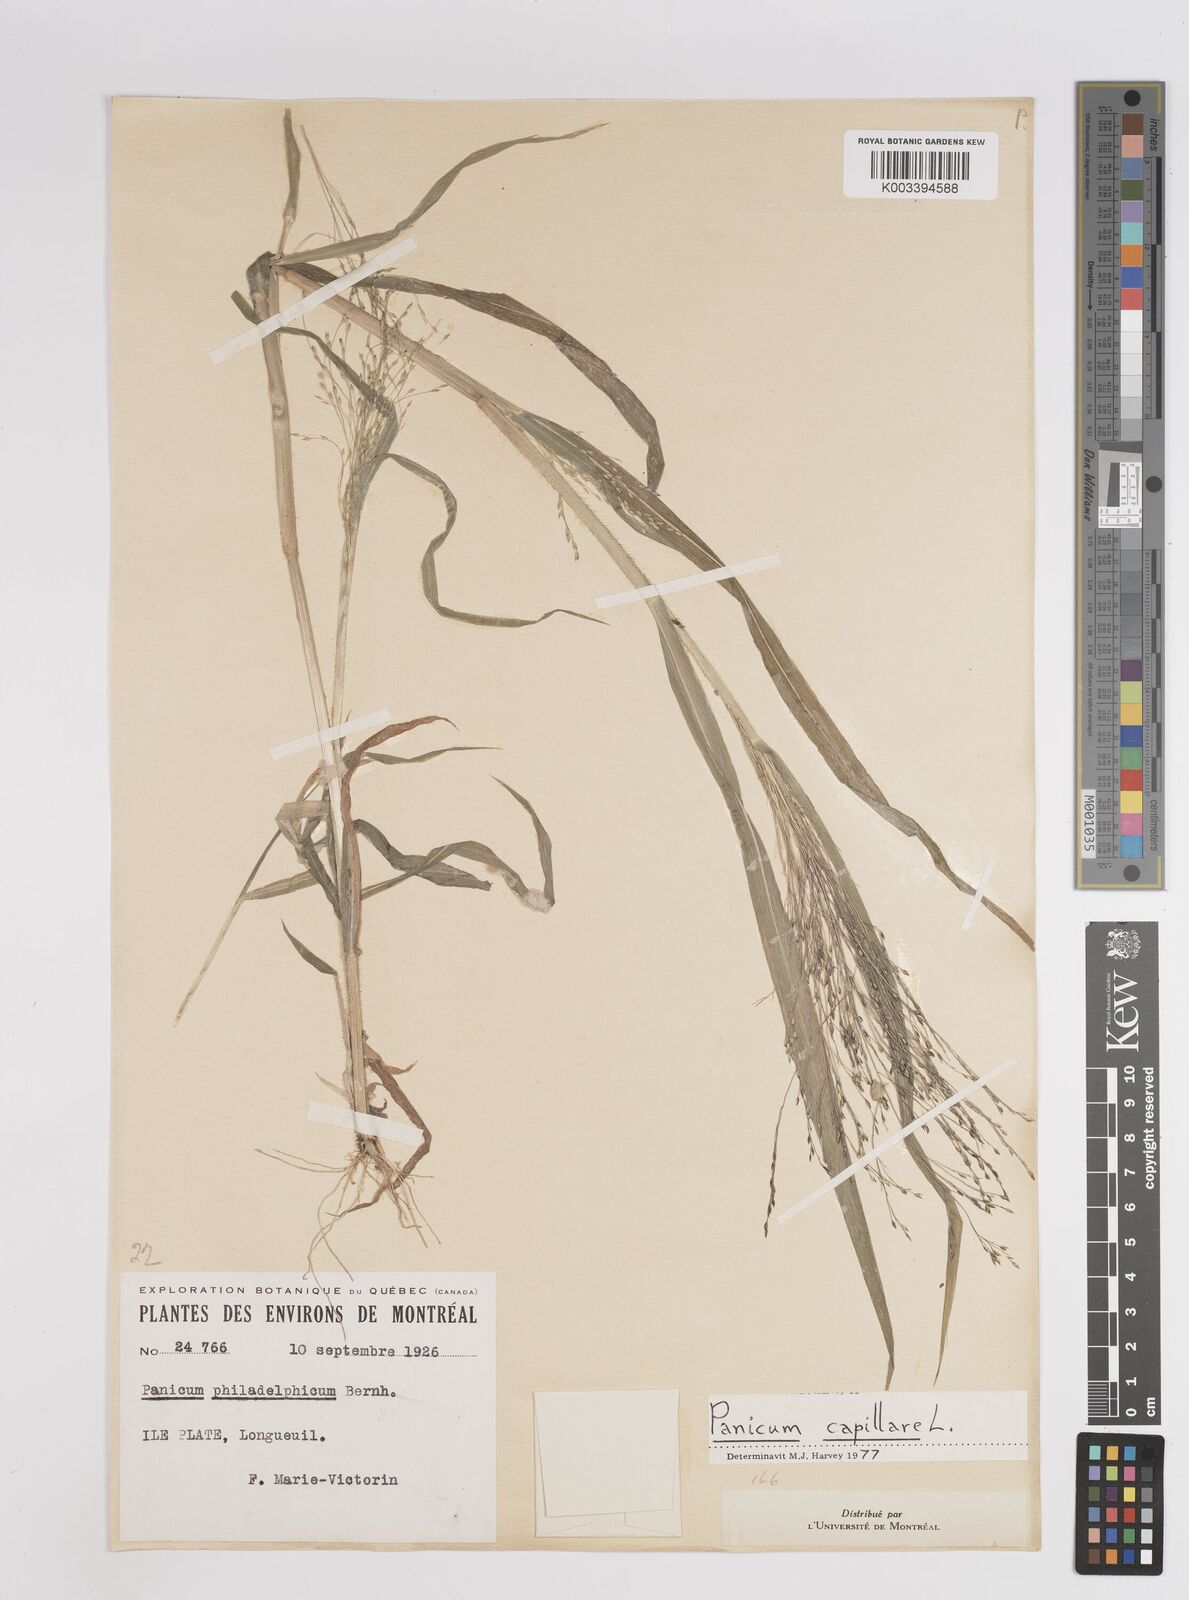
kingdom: Plantae
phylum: Tracheophyta
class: Liliopsida
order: Poales
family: Poaceae
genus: Panicum
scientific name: Panicum capillare
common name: Witch-grass
